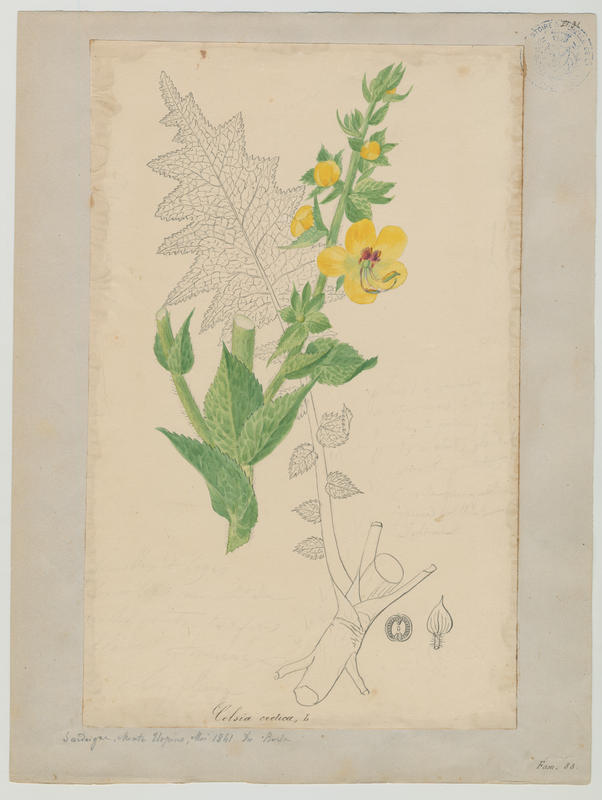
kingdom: Plantae
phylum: Tracheophyta
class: Magnoliopsida
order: Lamiales
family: Scrophulariaceae
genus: Verbascum
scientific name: Verbascum creticum
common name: Cretan mullein
